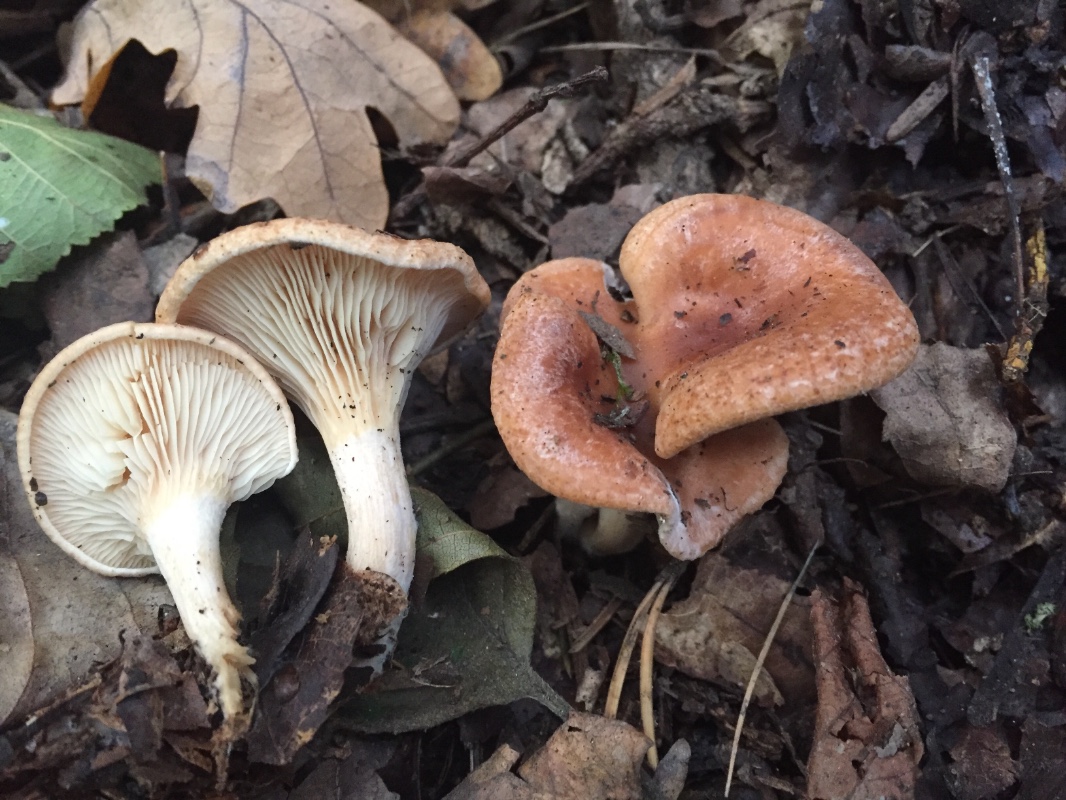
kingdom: Fungi
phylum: Basidiomycota
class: Agaricomycetes
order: Agaricales
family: Tricholomataceae
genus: Paralepista
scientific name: Paralepista flaccida
